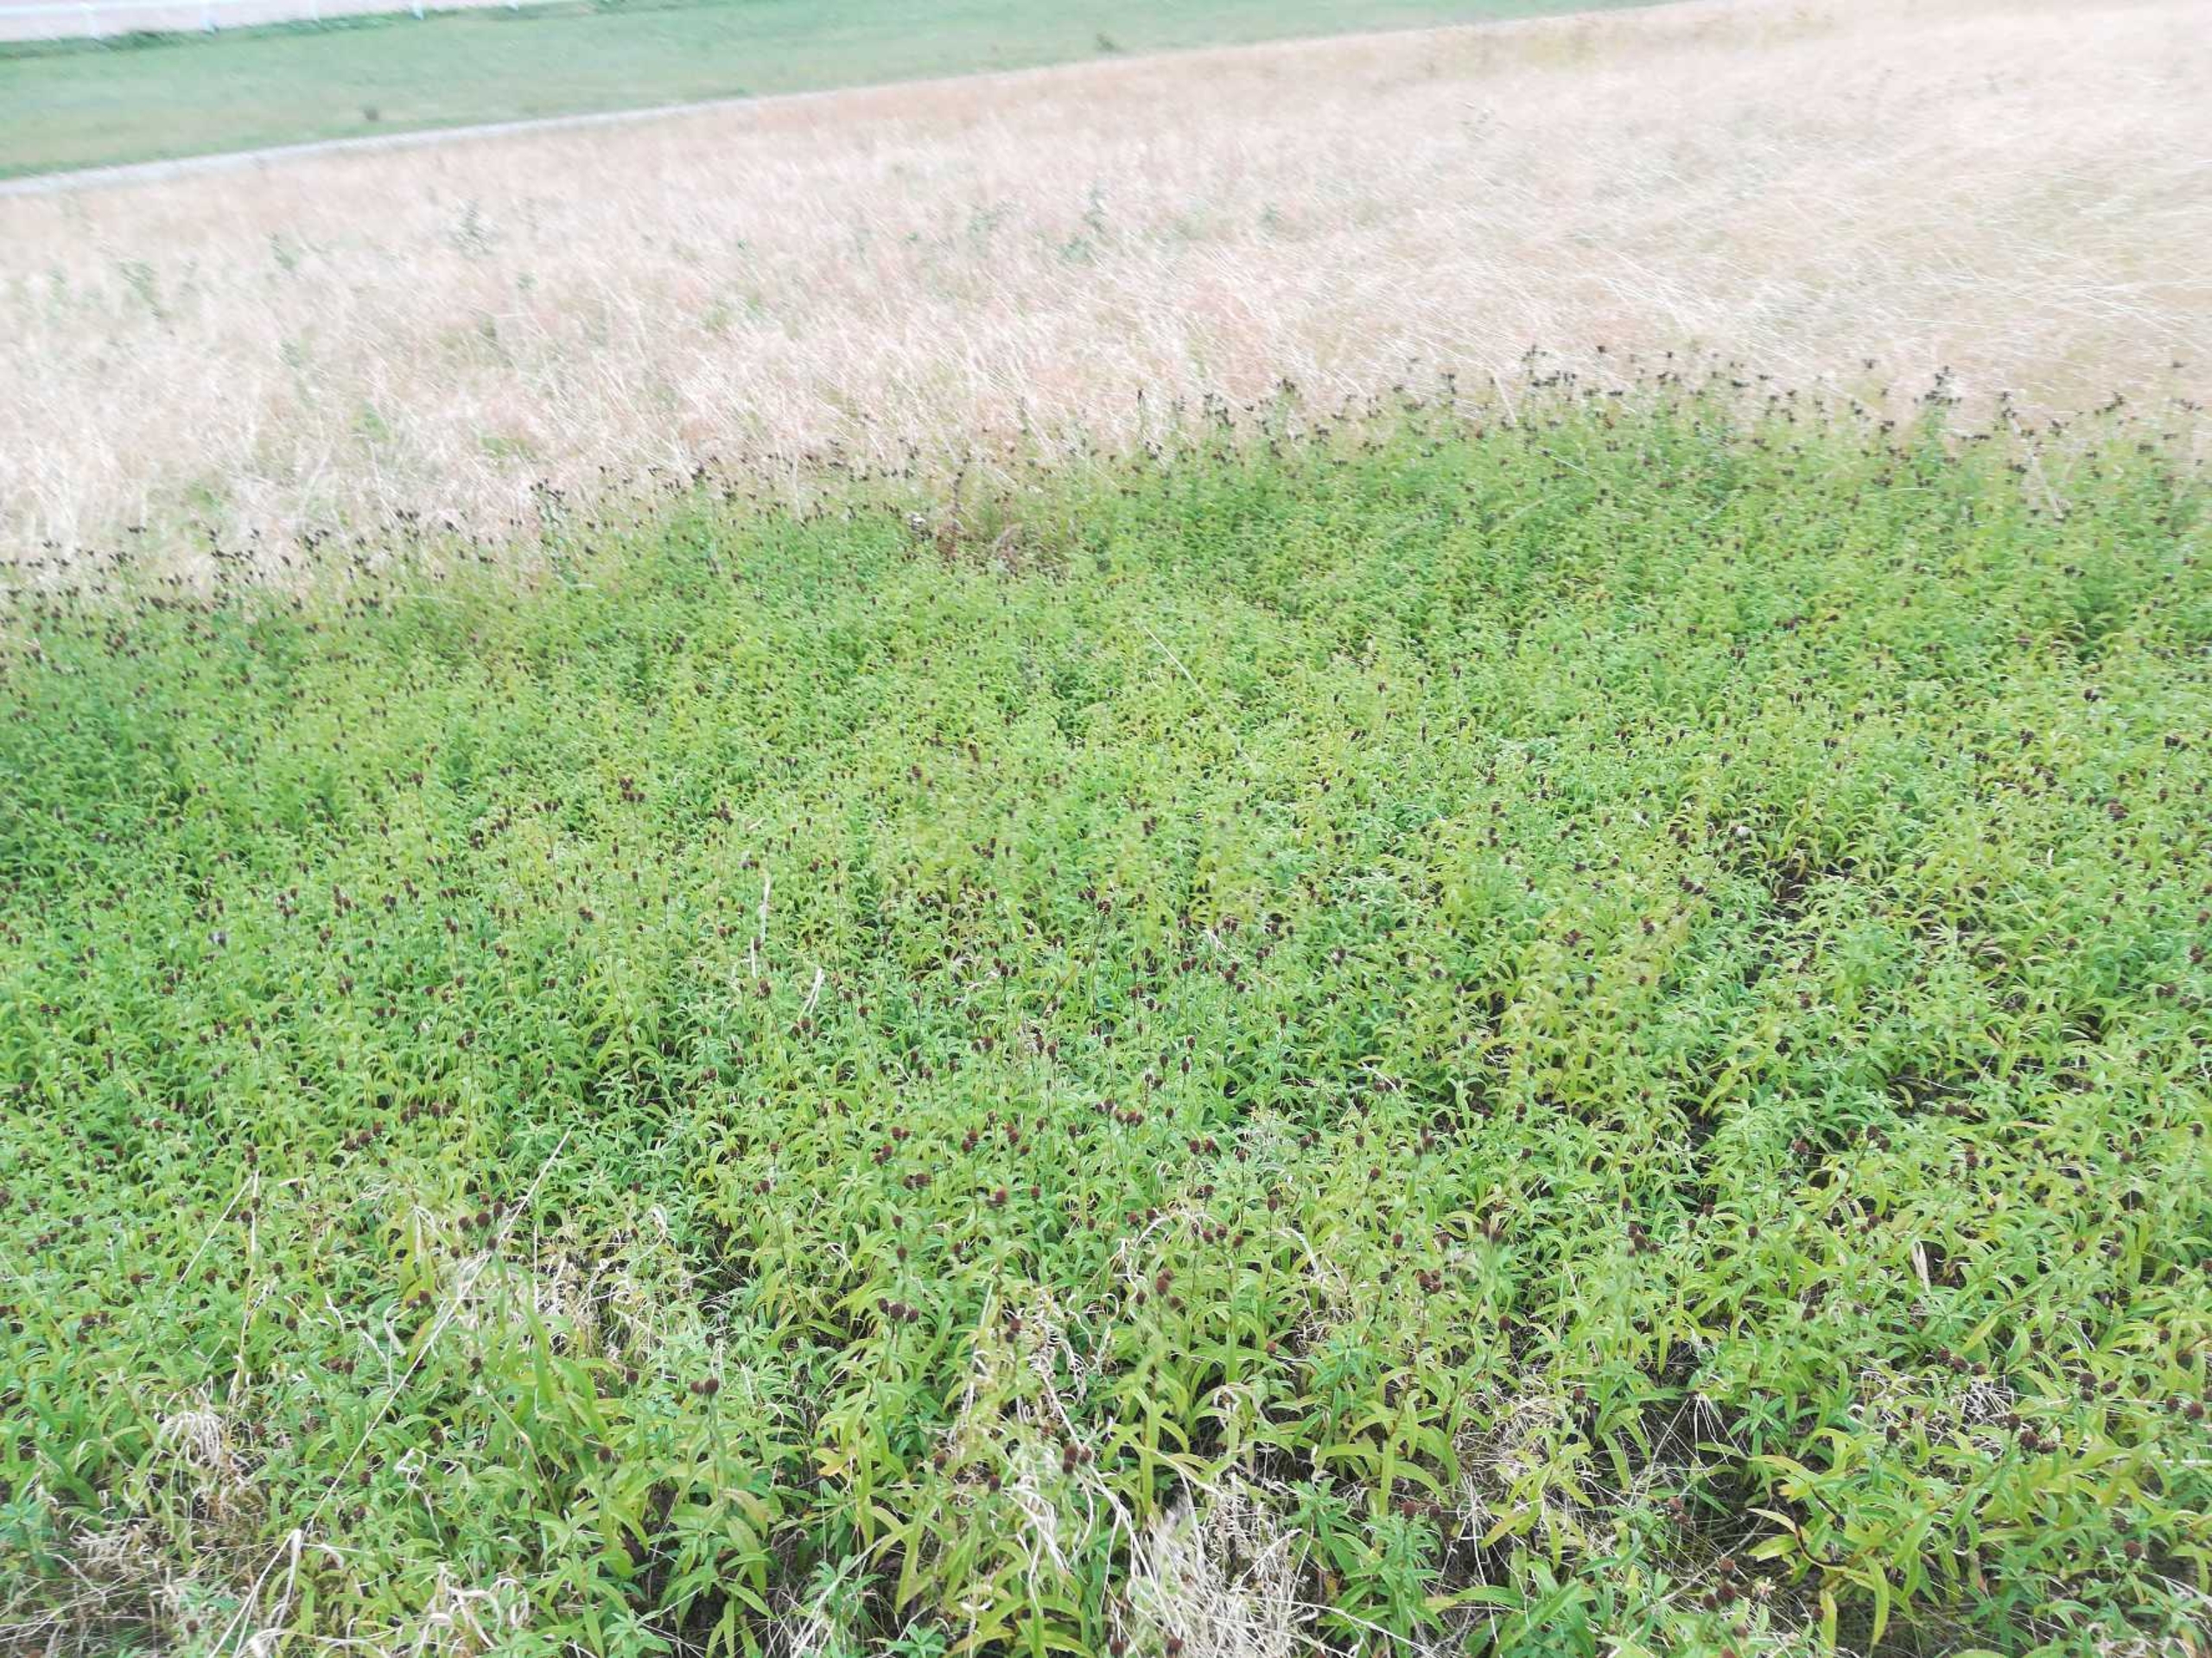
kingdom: Plantae
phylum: Tracheophyta
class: Magnoliopsida
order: Asterales
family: Asteraceae
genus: Pentanema
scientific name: Pentanema salicinum
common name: Pile-alant
